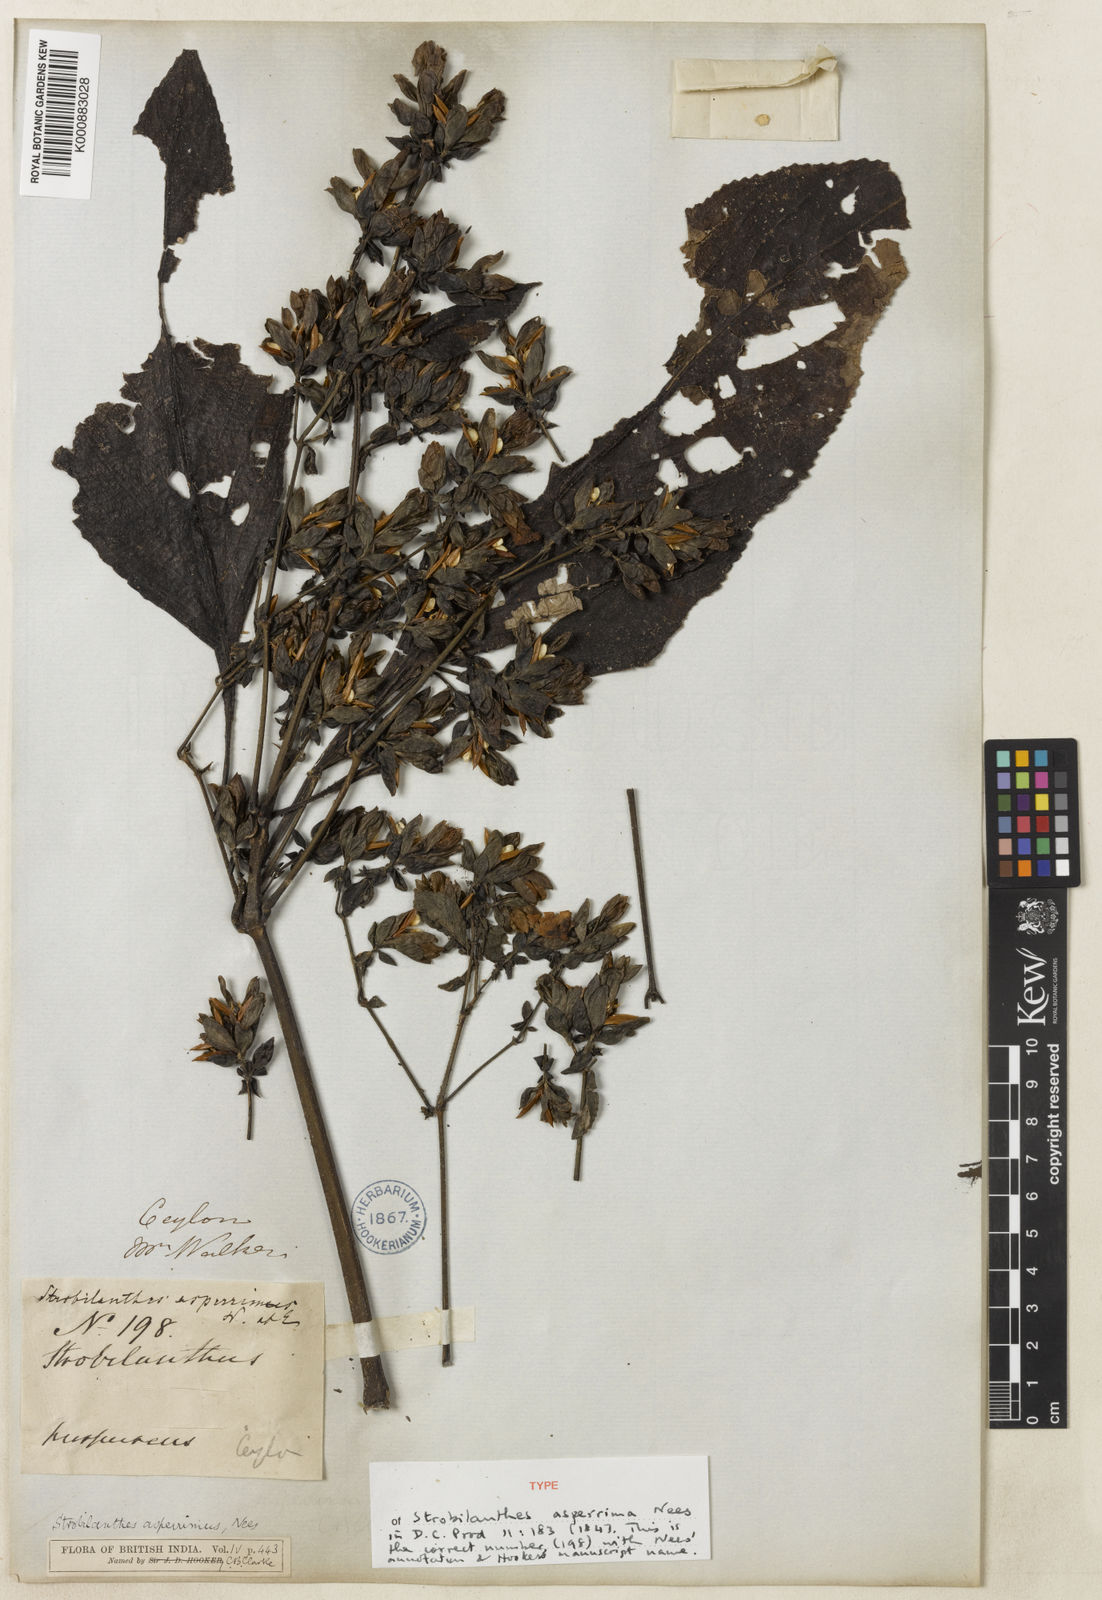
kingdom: Plantae
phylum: Tracheophyta
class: Magnoliopsida
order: Lamiales
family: Acanthaceae
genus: Strobilanthes
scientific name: Strobilanthes
